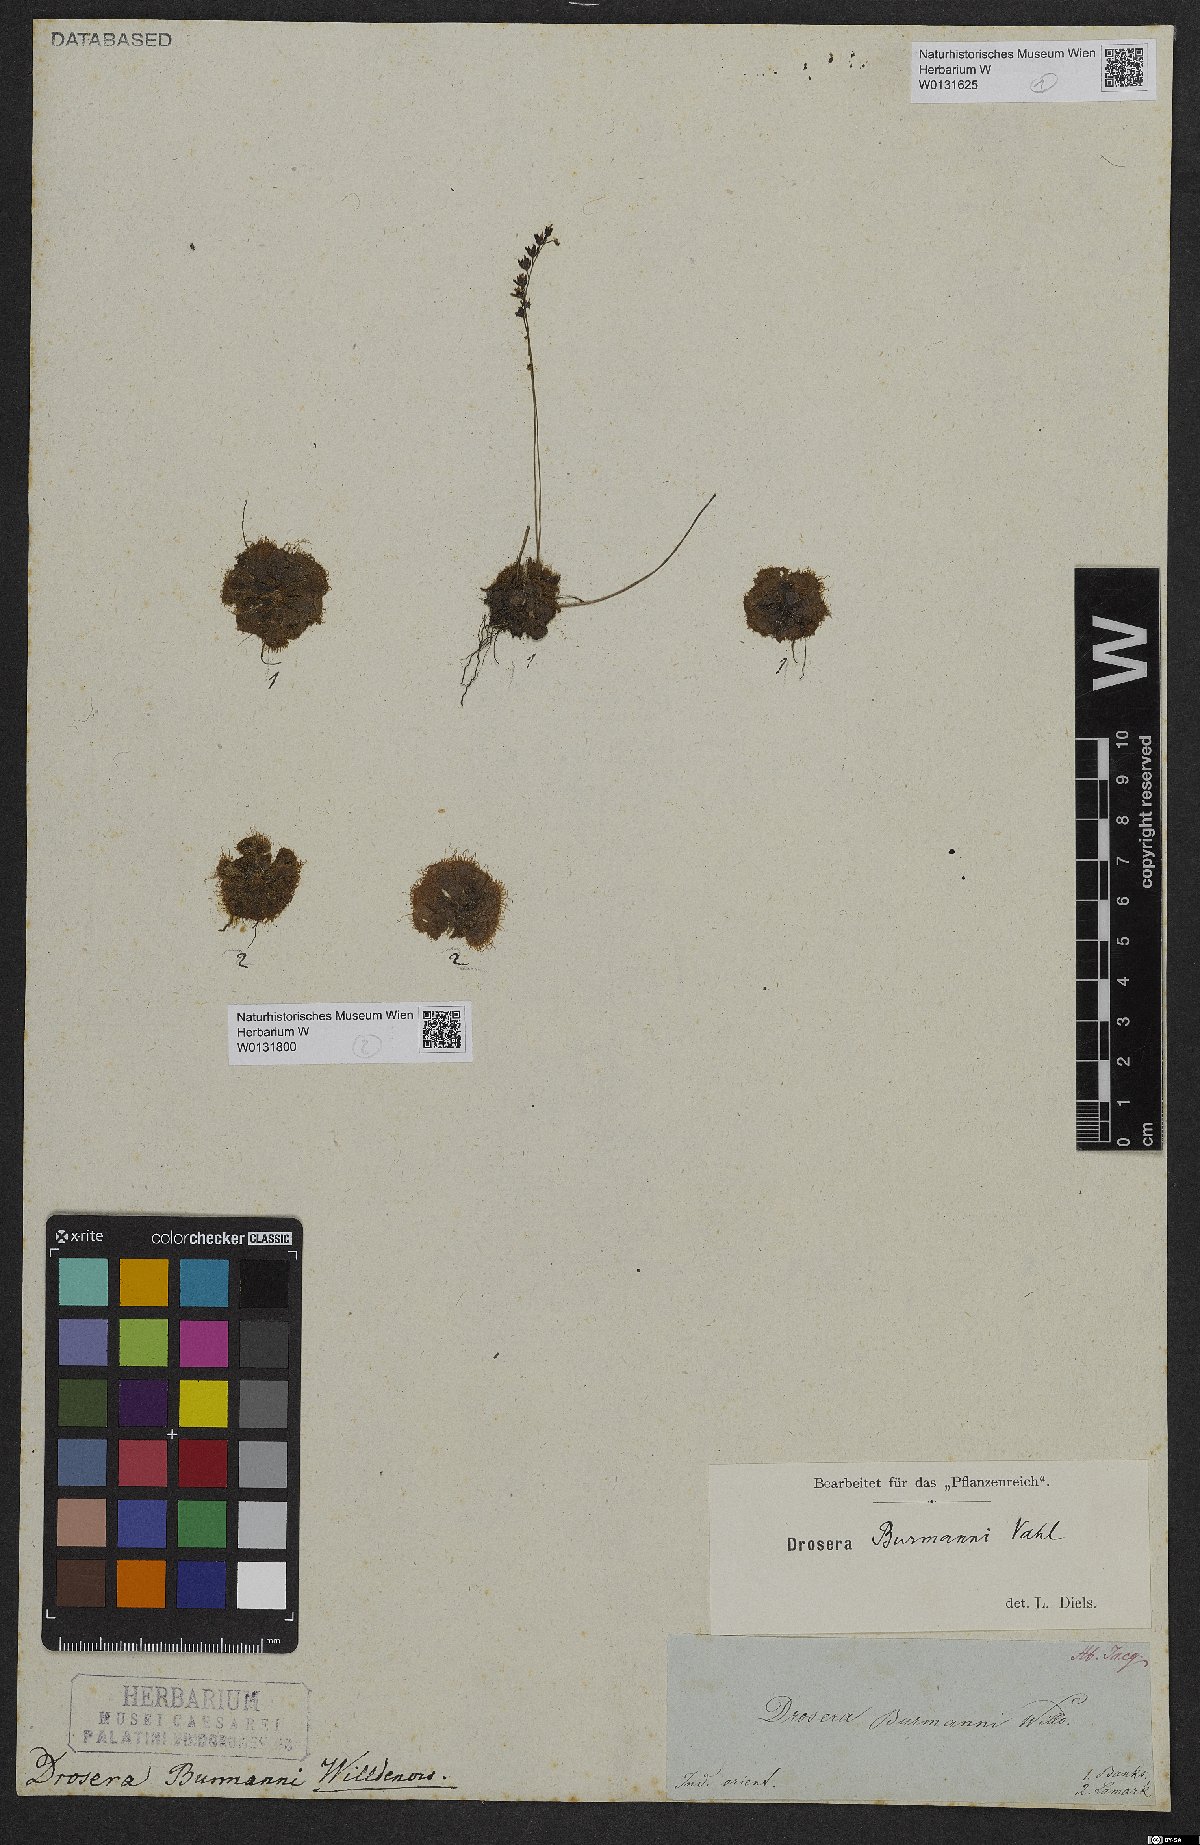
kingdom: Plantae
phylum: Tracheophyta
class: Magnoliopsida
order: Caryophyllales
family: Droseraceae
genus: Drosera
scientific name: Drosera burmannii
